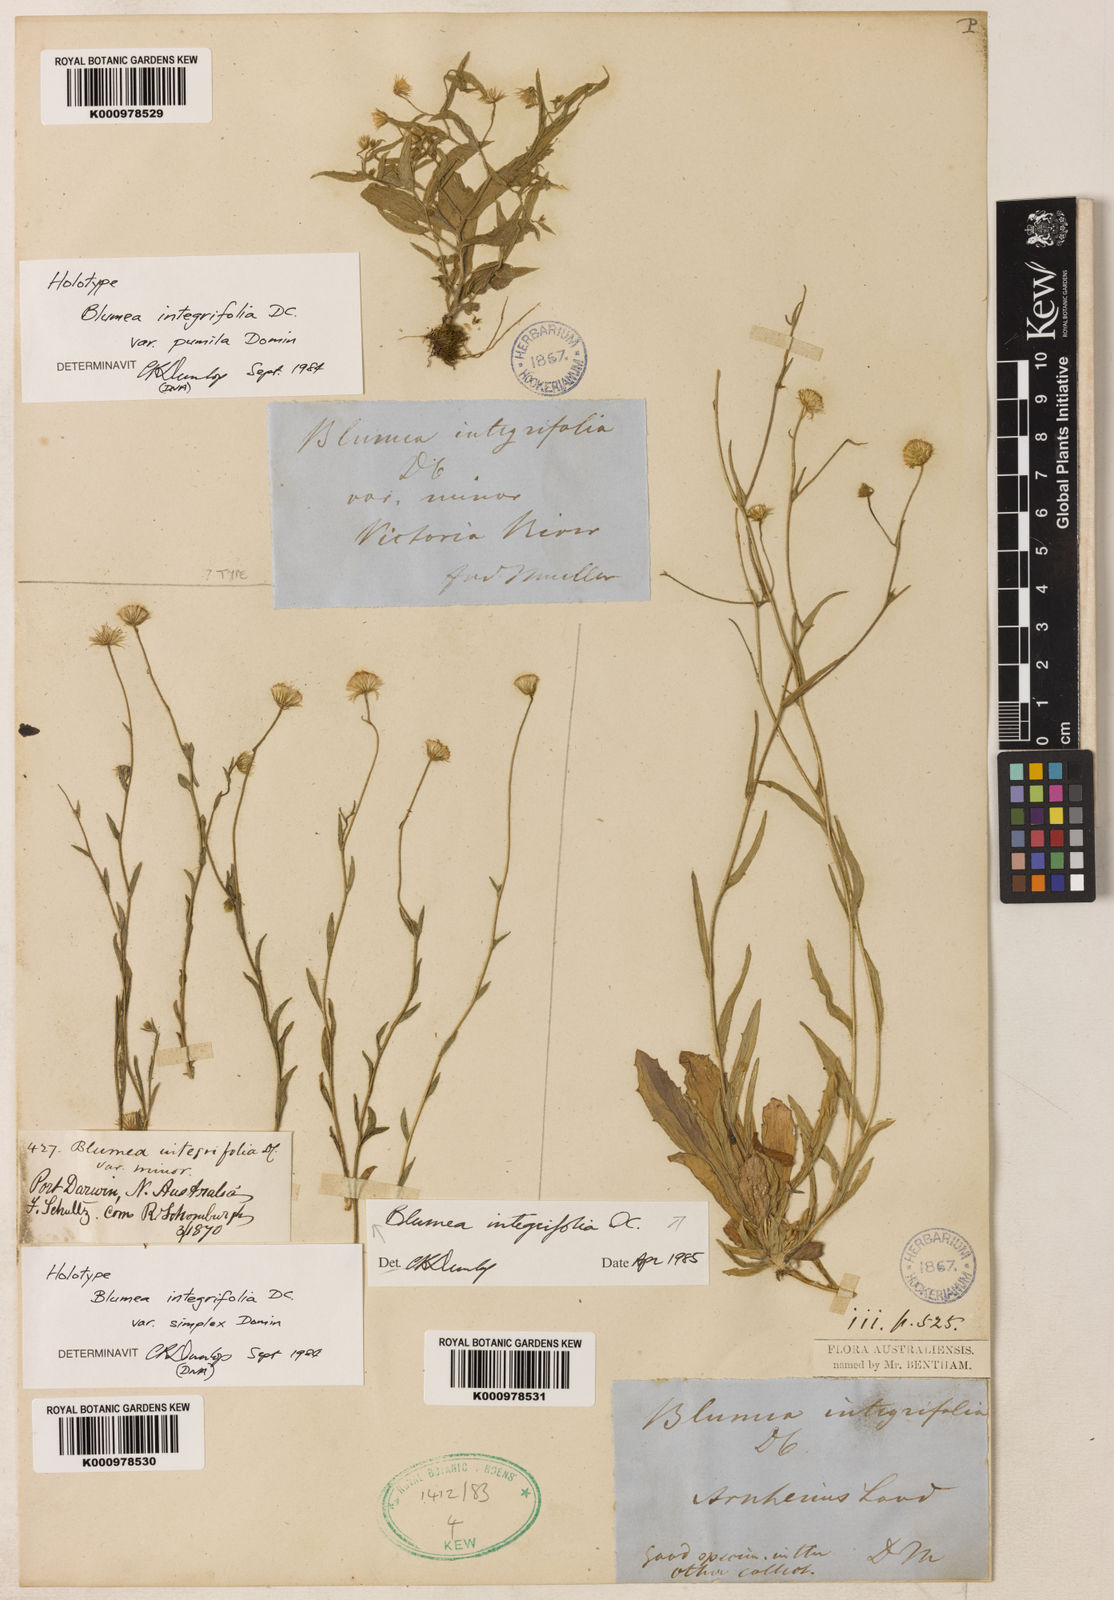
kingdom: Plantae
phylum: Tracheophyta
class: Magnoliopsida
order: Asterales
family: Asteraceae
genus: Blumea
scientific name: Blumea integrifolia
